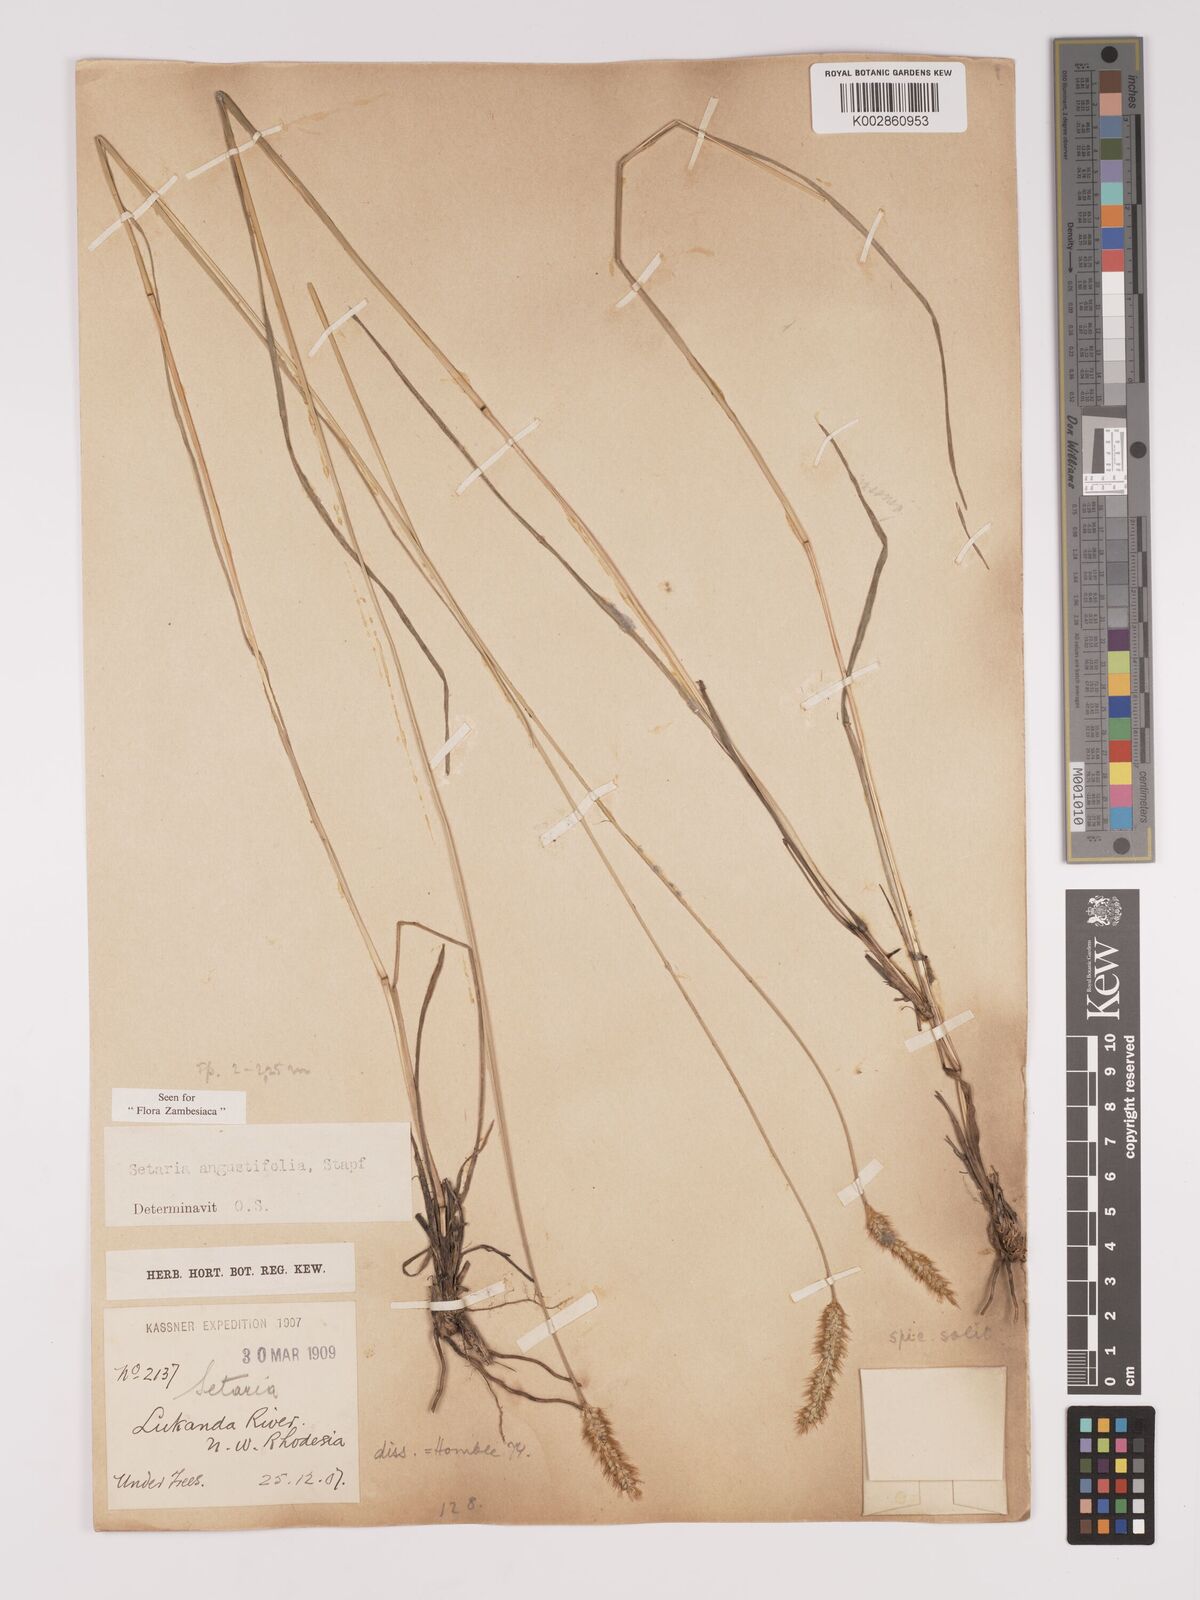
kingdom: Plantae
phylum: Tracheophyta
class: Liliopsida
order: Poales
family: Poaceae
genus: Setaria
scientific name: Setaria
